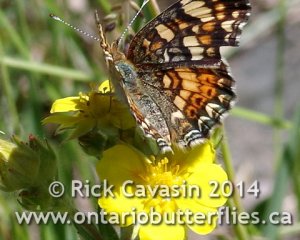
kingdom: Animalia
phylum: Arthropoda
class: Insecta
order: Lepidoptera
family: Nymphalidae
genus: Phyciodes
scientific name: Phyciodes tharos
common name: Field Crescent
